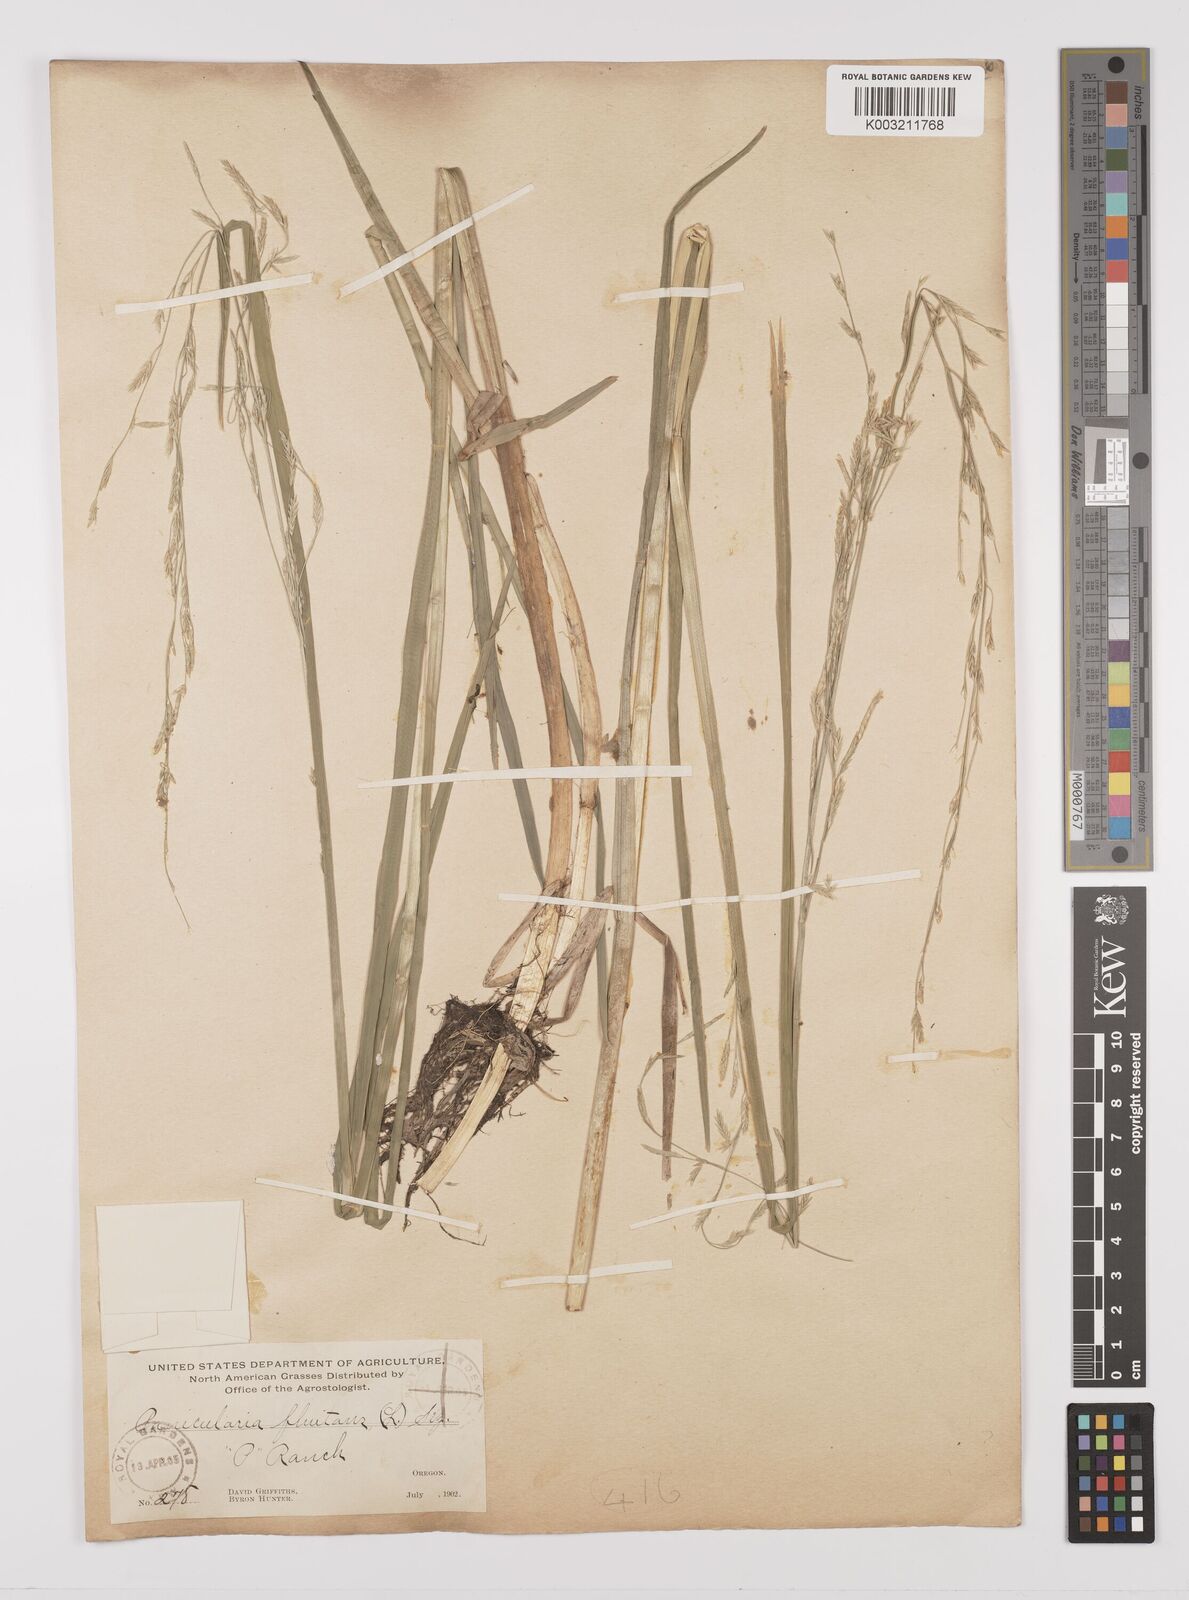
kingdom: Plantae
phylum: Tracheophyta
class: Liliopsida
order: Poales
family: Poaceae
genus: Glyceria
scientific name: Glyceria borealis
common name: Boreal glyceria
